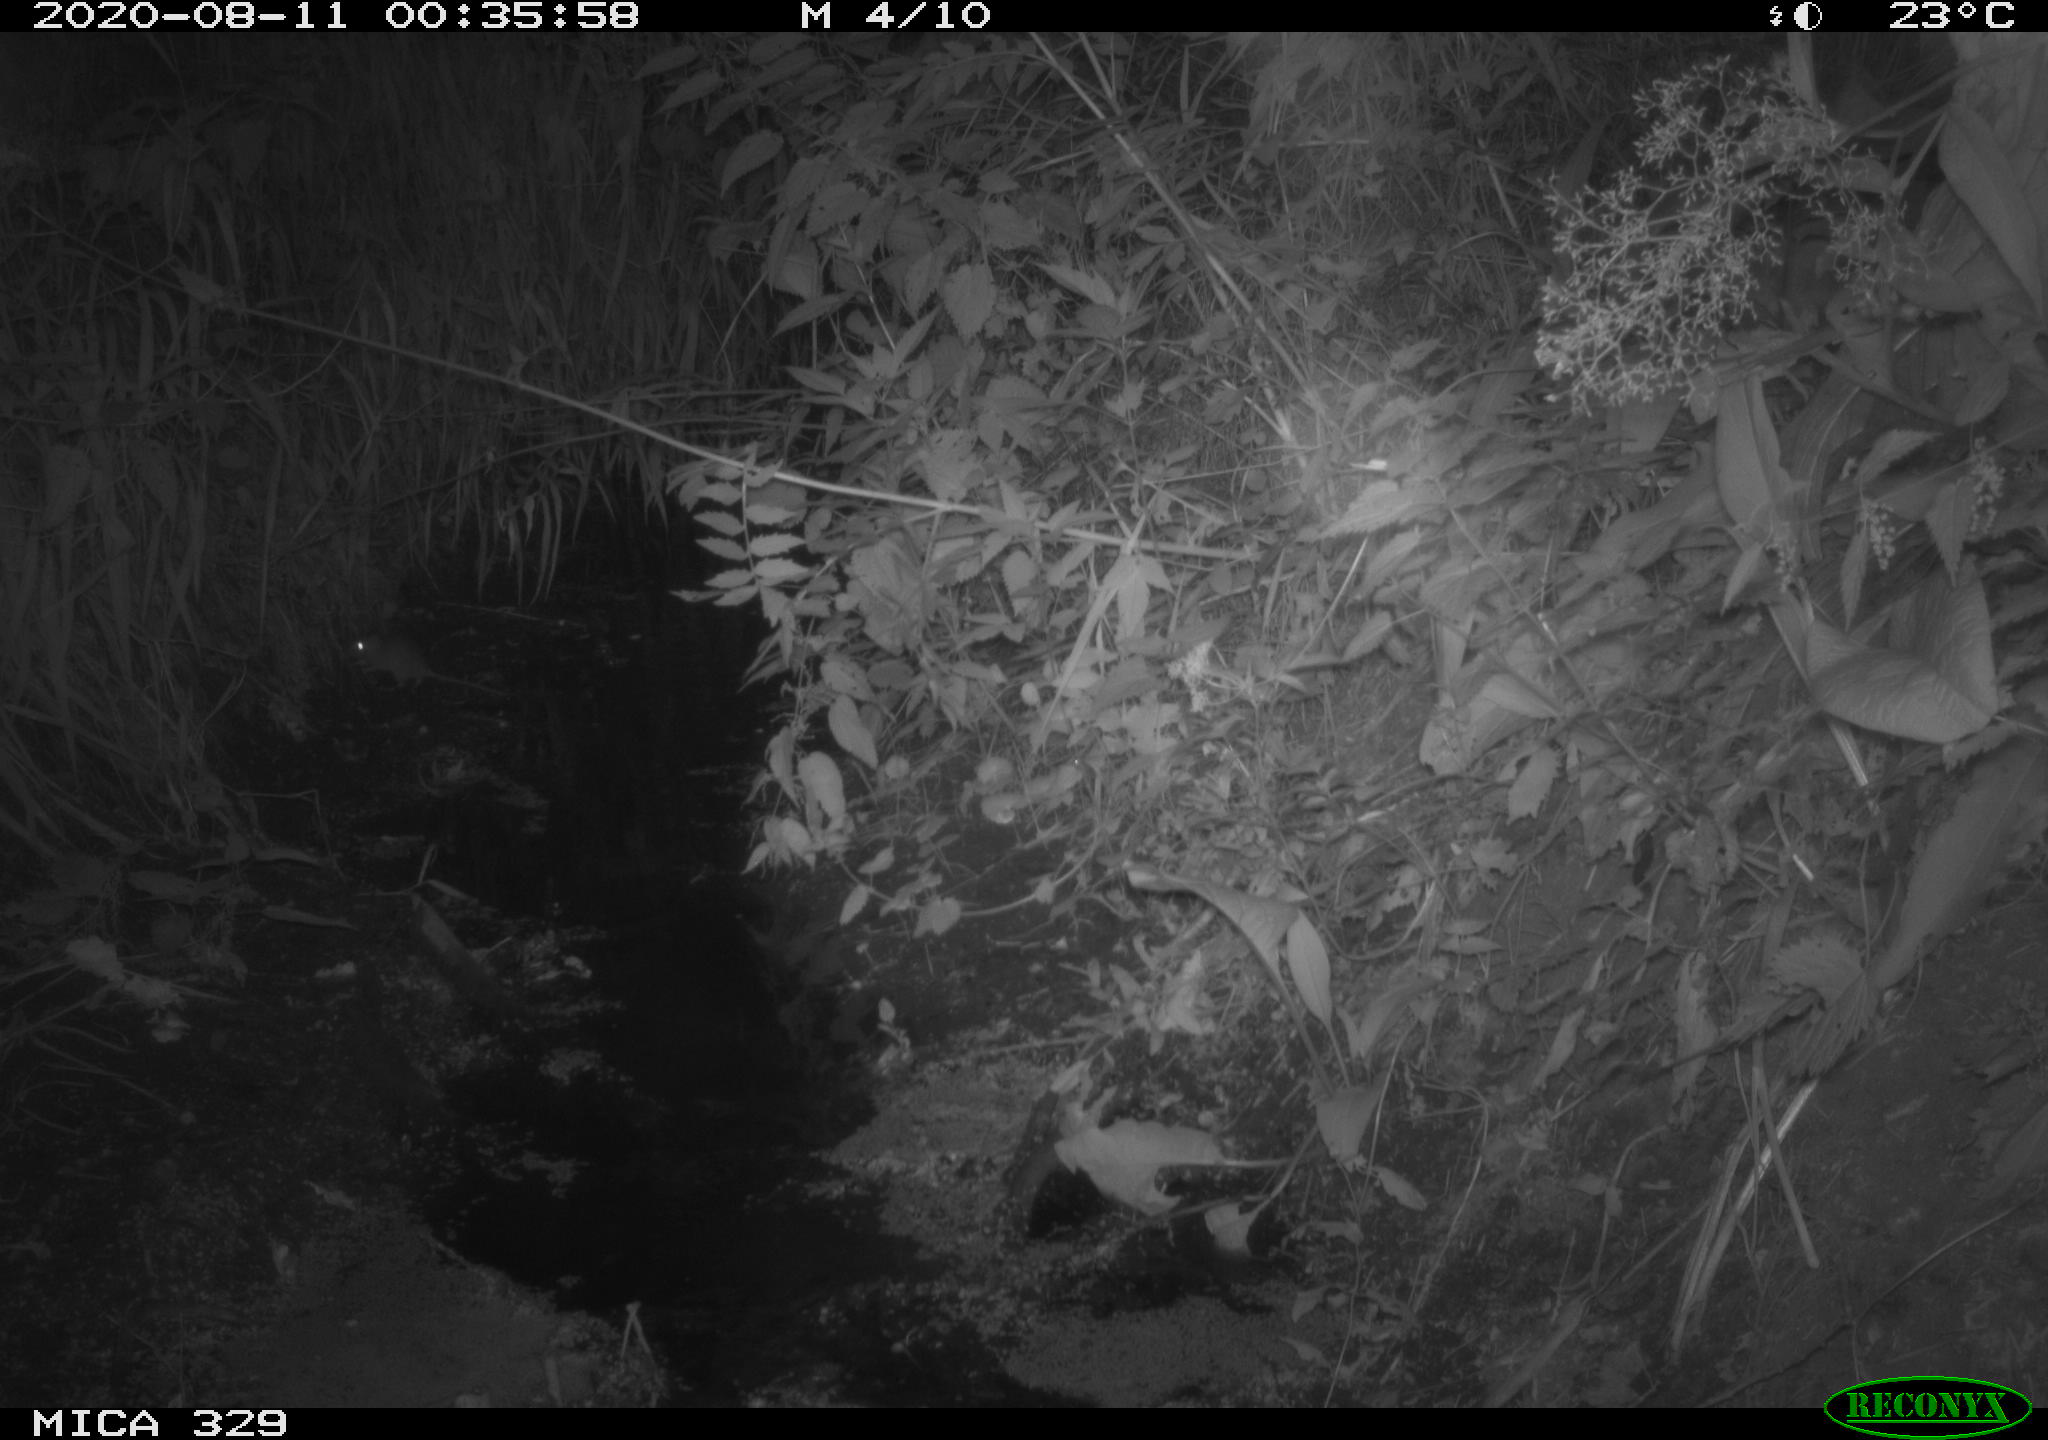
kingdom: Animalia
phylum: Chordata
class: Mammalia
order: Rodentia
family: Muridae
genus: Rattus
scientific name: Rattus norvegicus
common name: Brown rat
